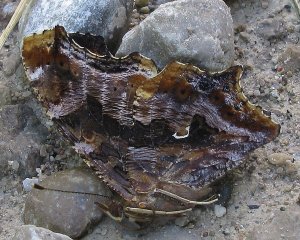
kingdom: Animalia
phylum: Arthropoda
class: Insecta
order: Lepidoptera
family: Nymphalidae
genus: Polygonia
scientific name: Polygonia comma
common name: Eastern Comma
